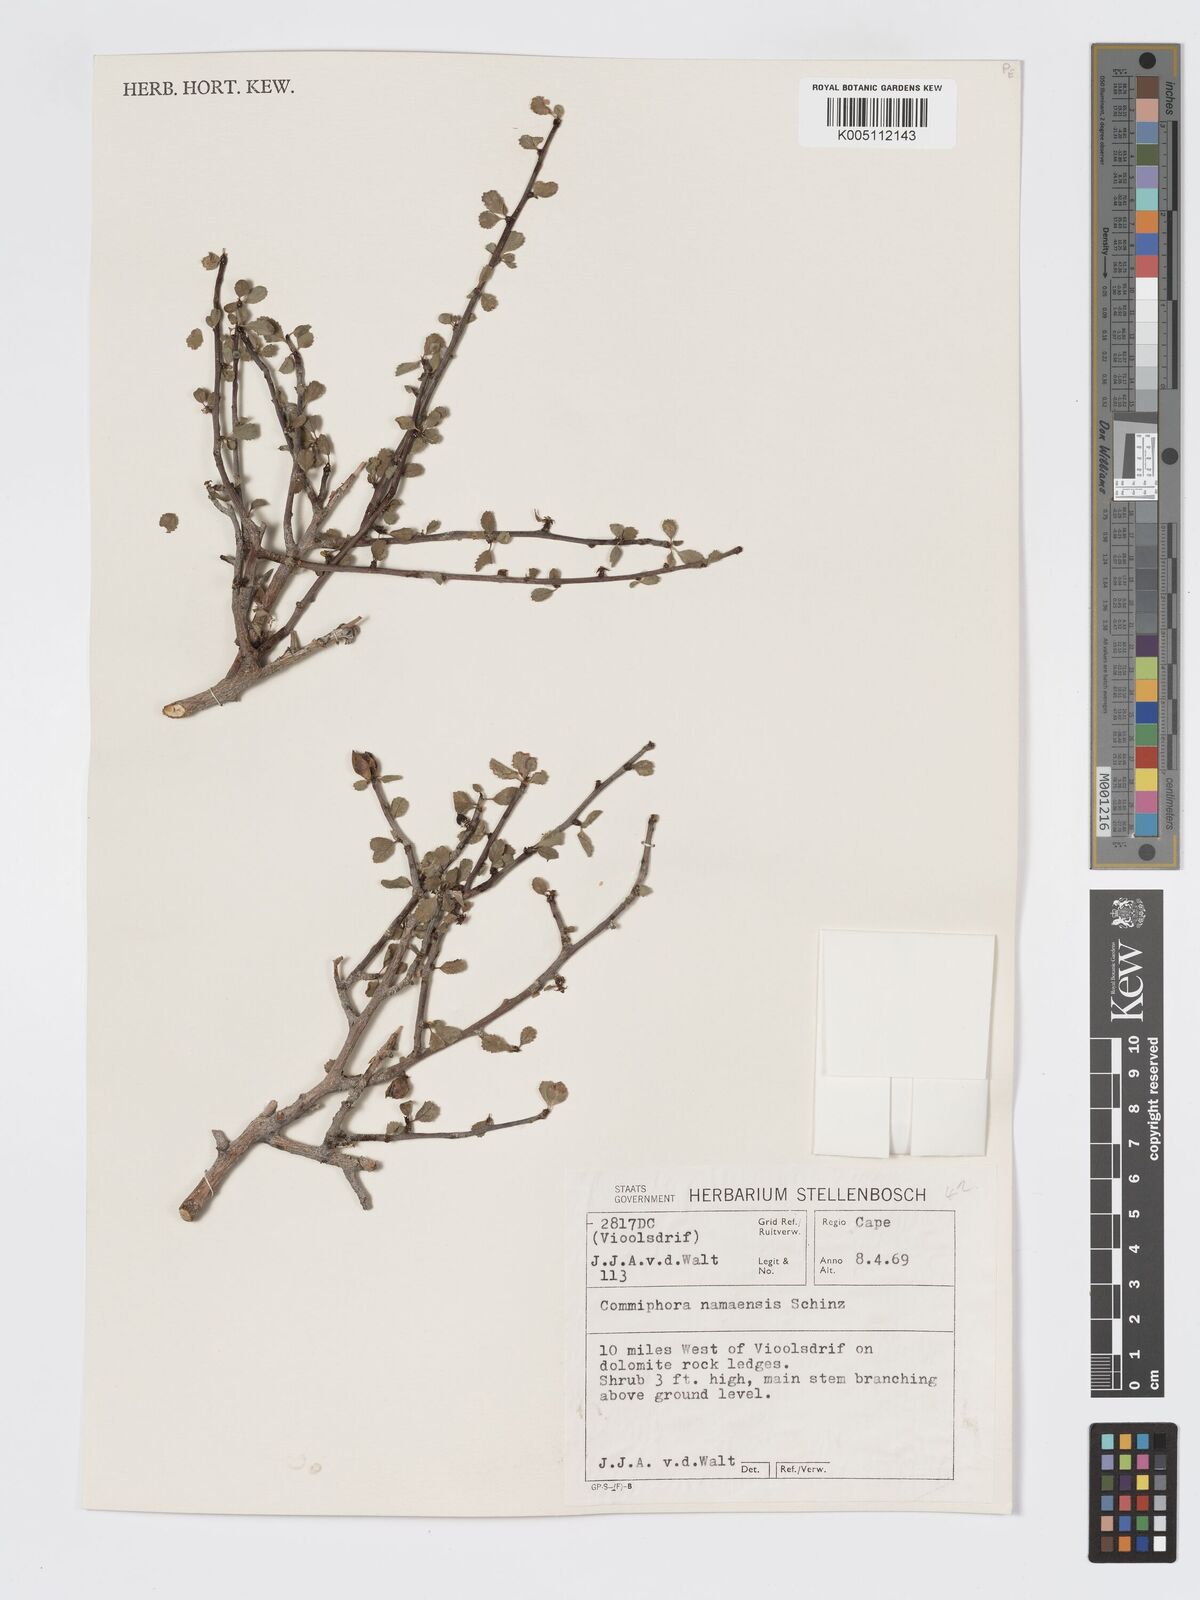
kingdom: Plantae
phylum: Tracheophyta
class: Magnoliopsida
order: Sapindales
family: Burseraceae
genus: Commiphora
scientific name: Commiphora namaensis
